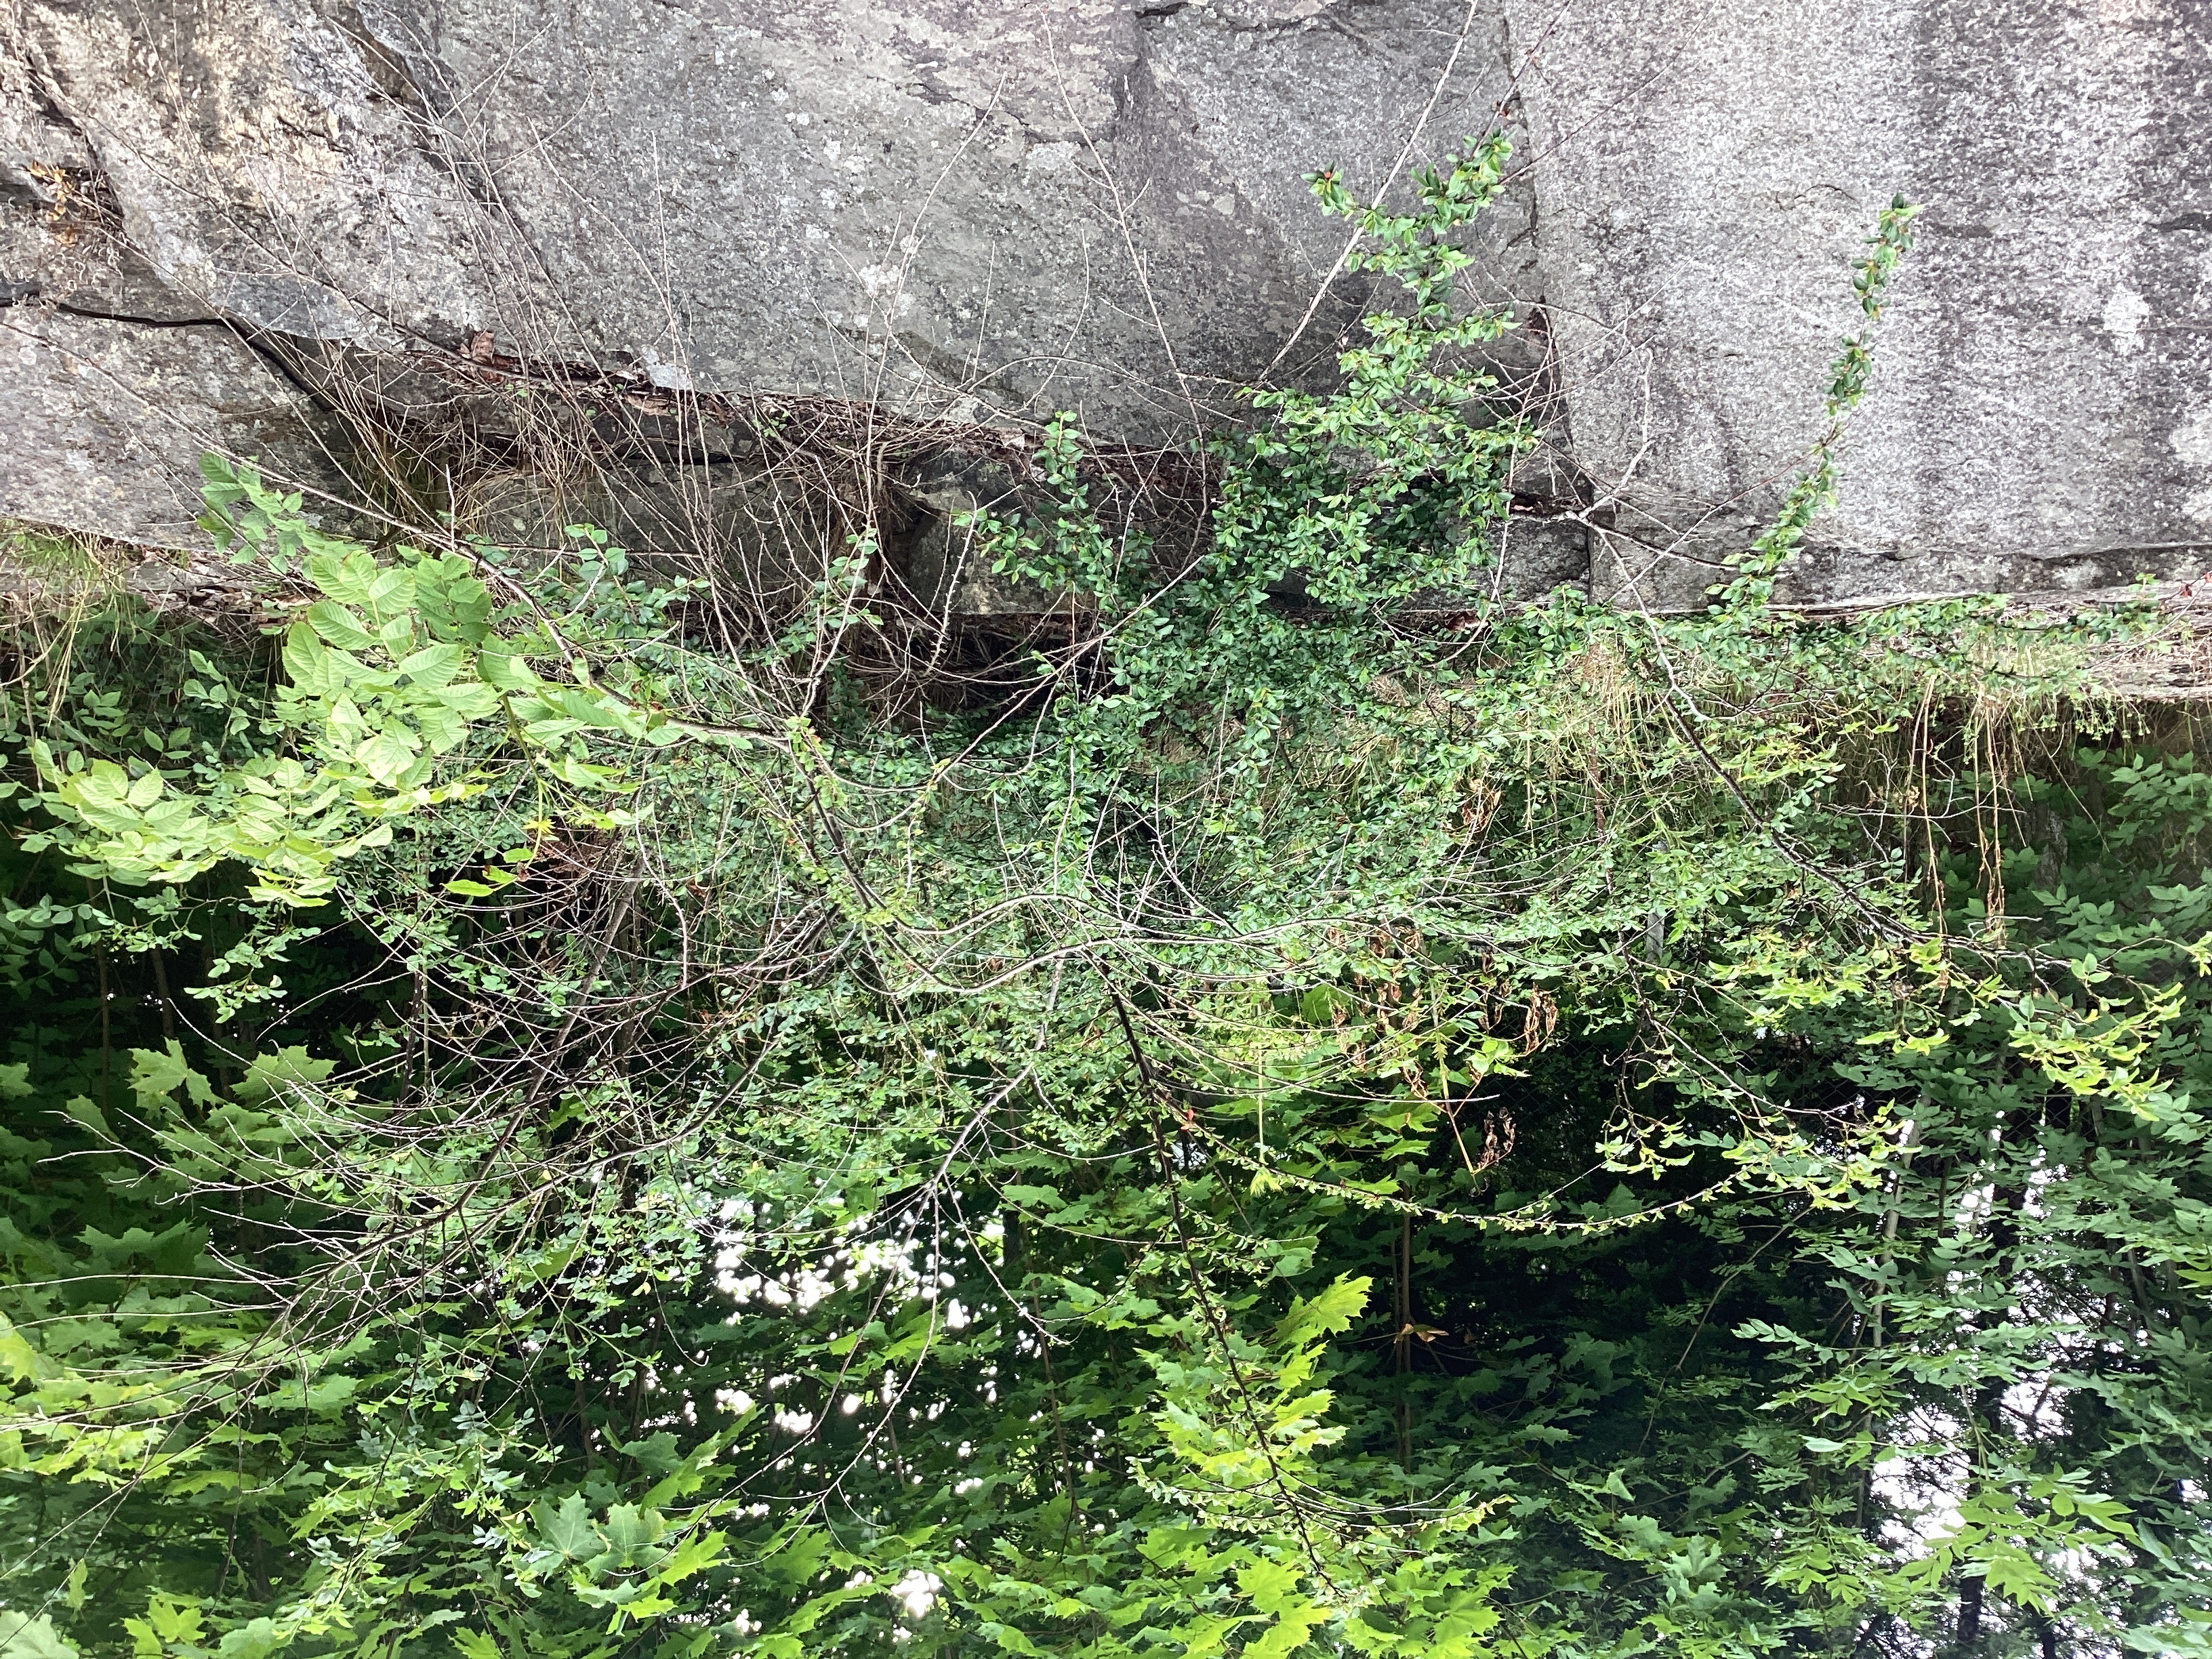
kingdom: Plantae
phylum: Tracheophyta
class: Magnoliopsida
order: Rosales
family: Rosaceae
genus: Cotoneaster
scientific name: Cotoneaster divaricatus
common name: sprikemispel
